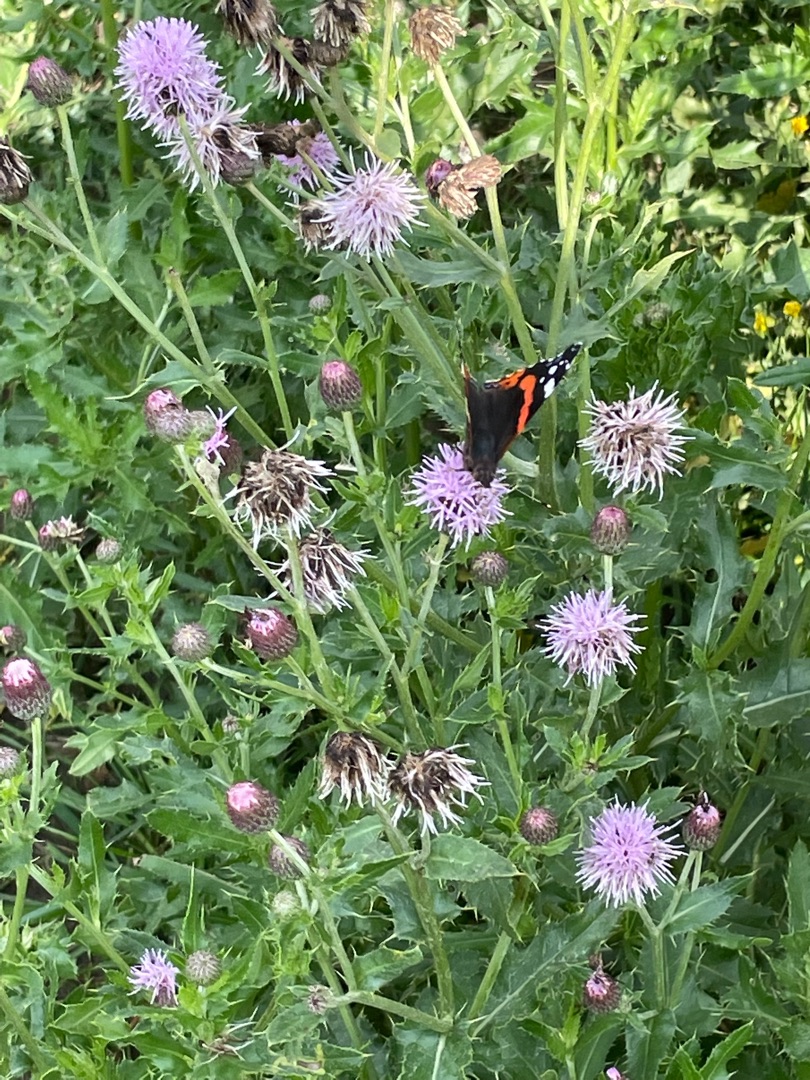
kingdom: Animalia
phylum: Arthropoda
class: Insecta
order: Lepidoptera
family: Nymphalidae
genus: Vanessa
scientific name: Vanessa atalanta
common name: Admiral
